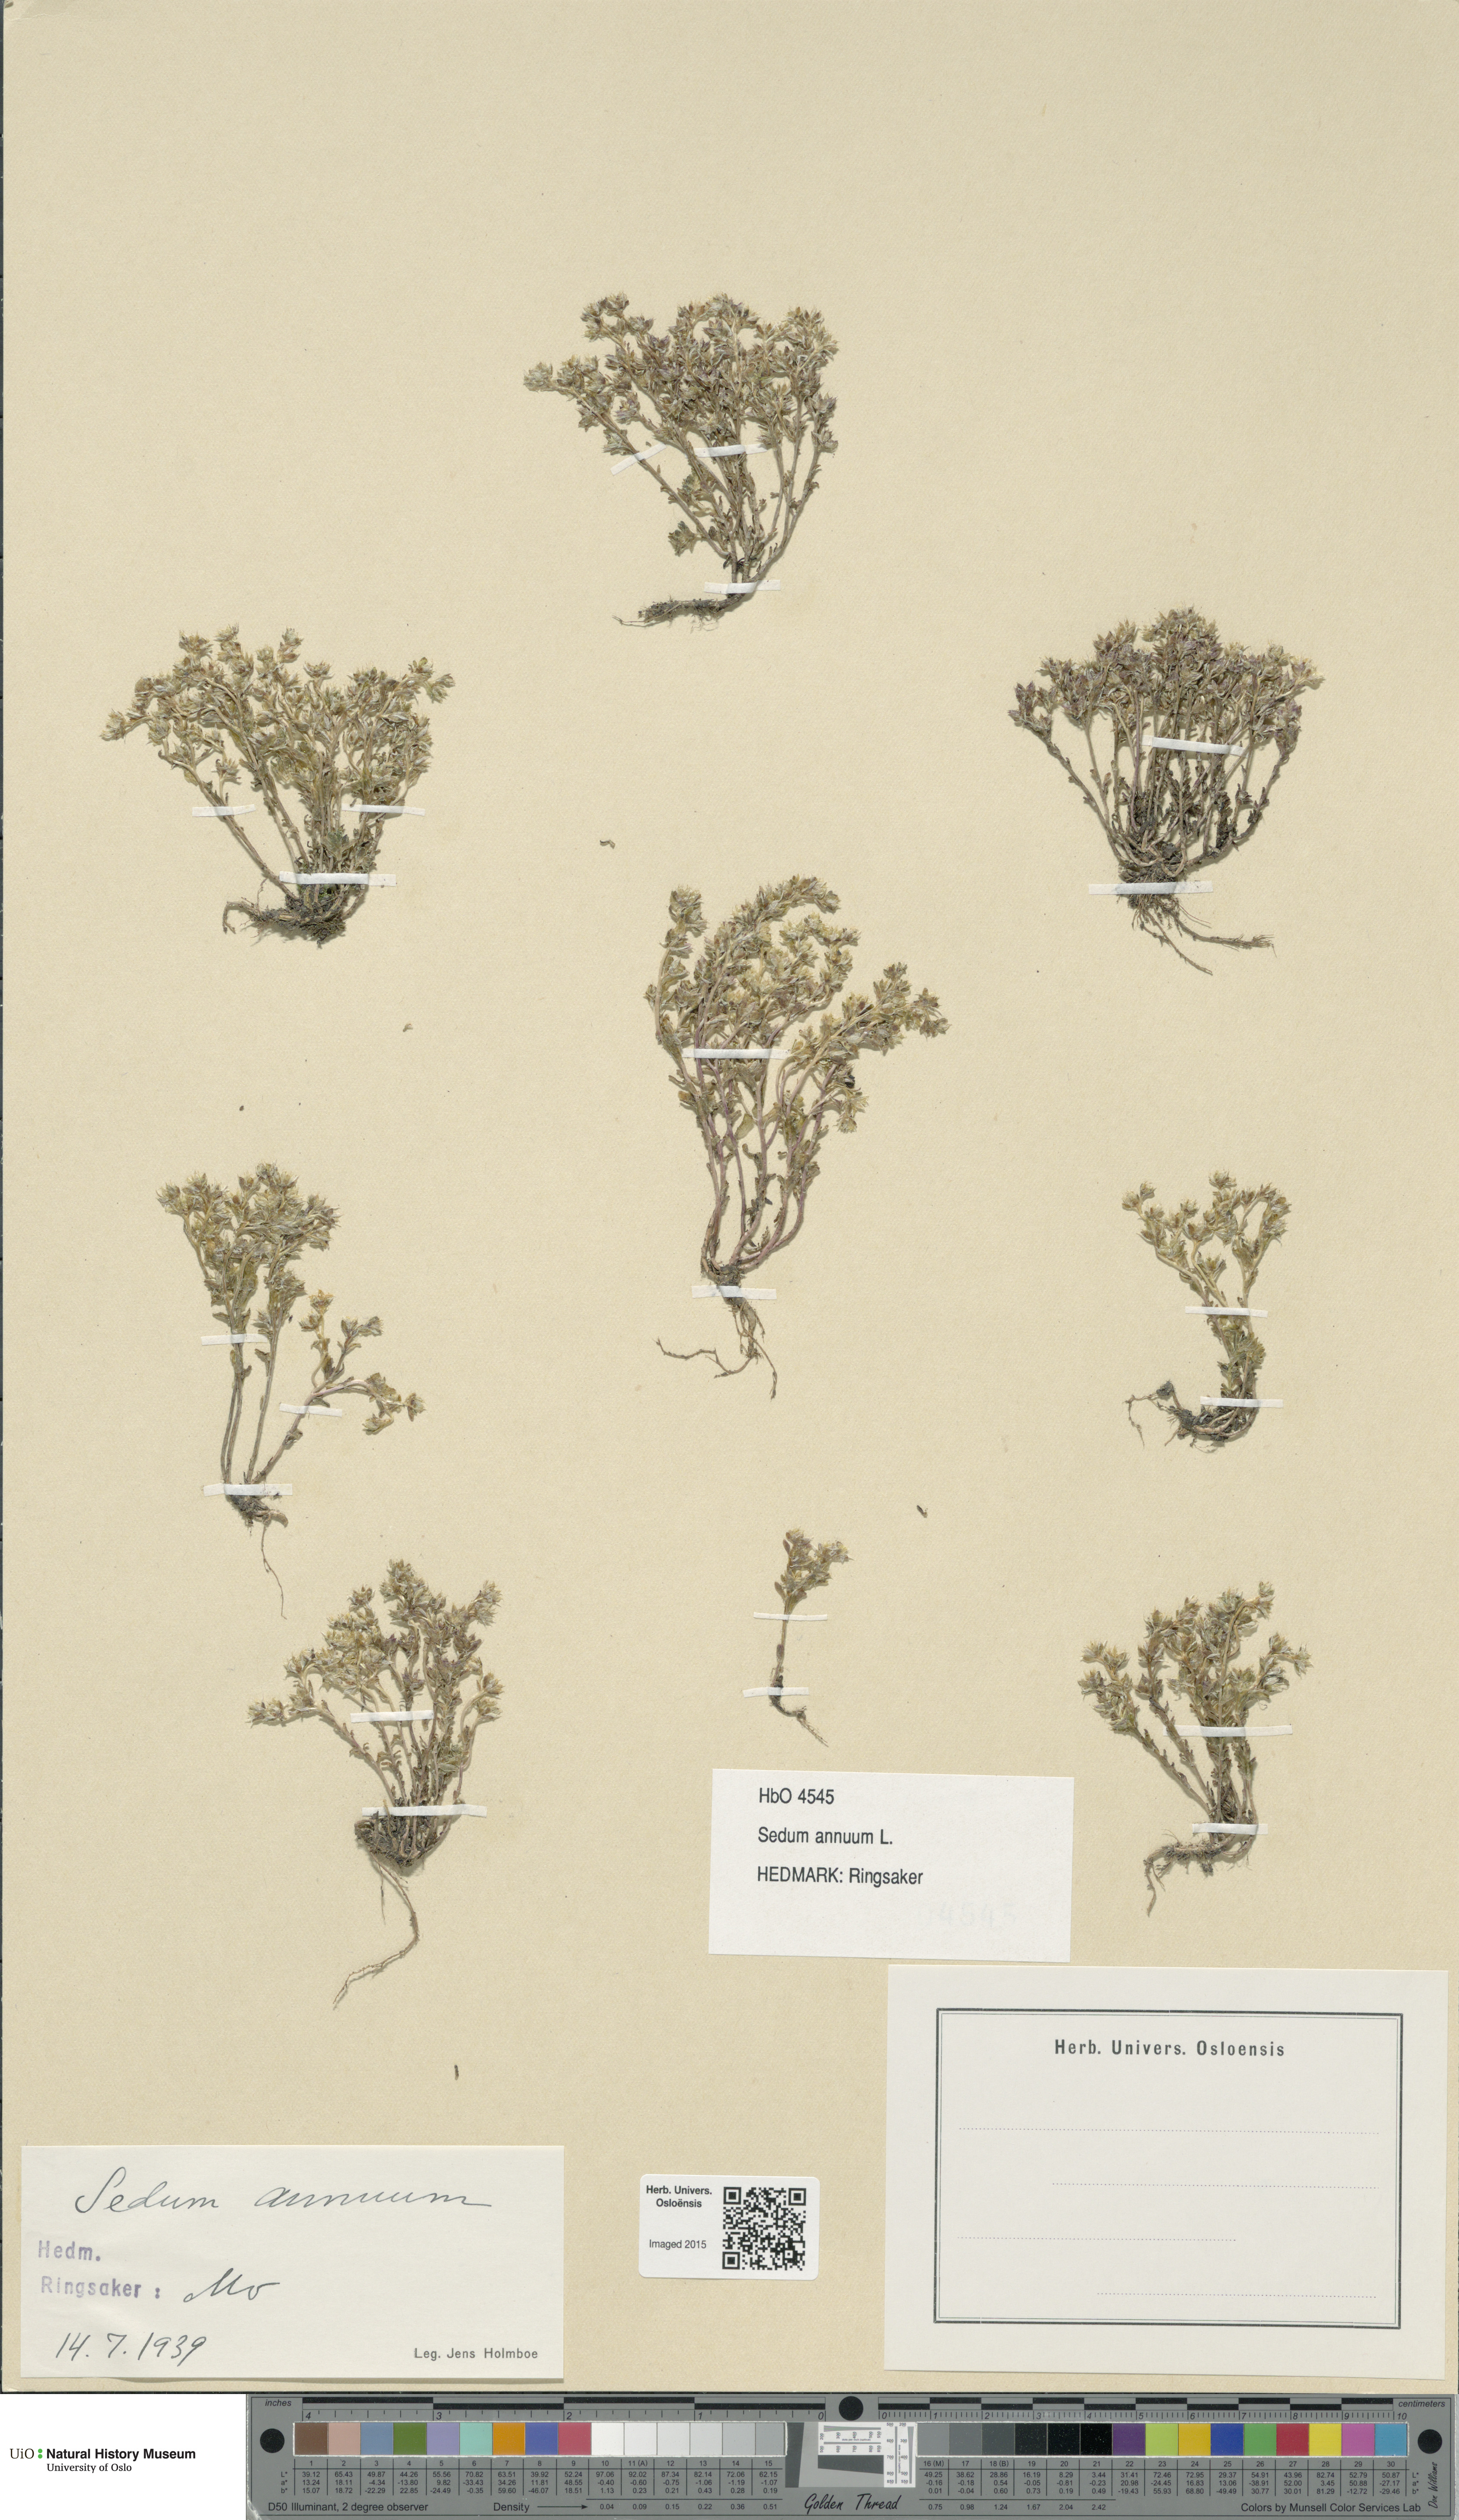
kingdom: Plantae
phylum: Tracheophyta
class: Magnoliopsida
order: Saxifragales
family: Crassulaceae
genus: Sedum
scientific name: Sedum annuum
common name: Annual stonecrop
